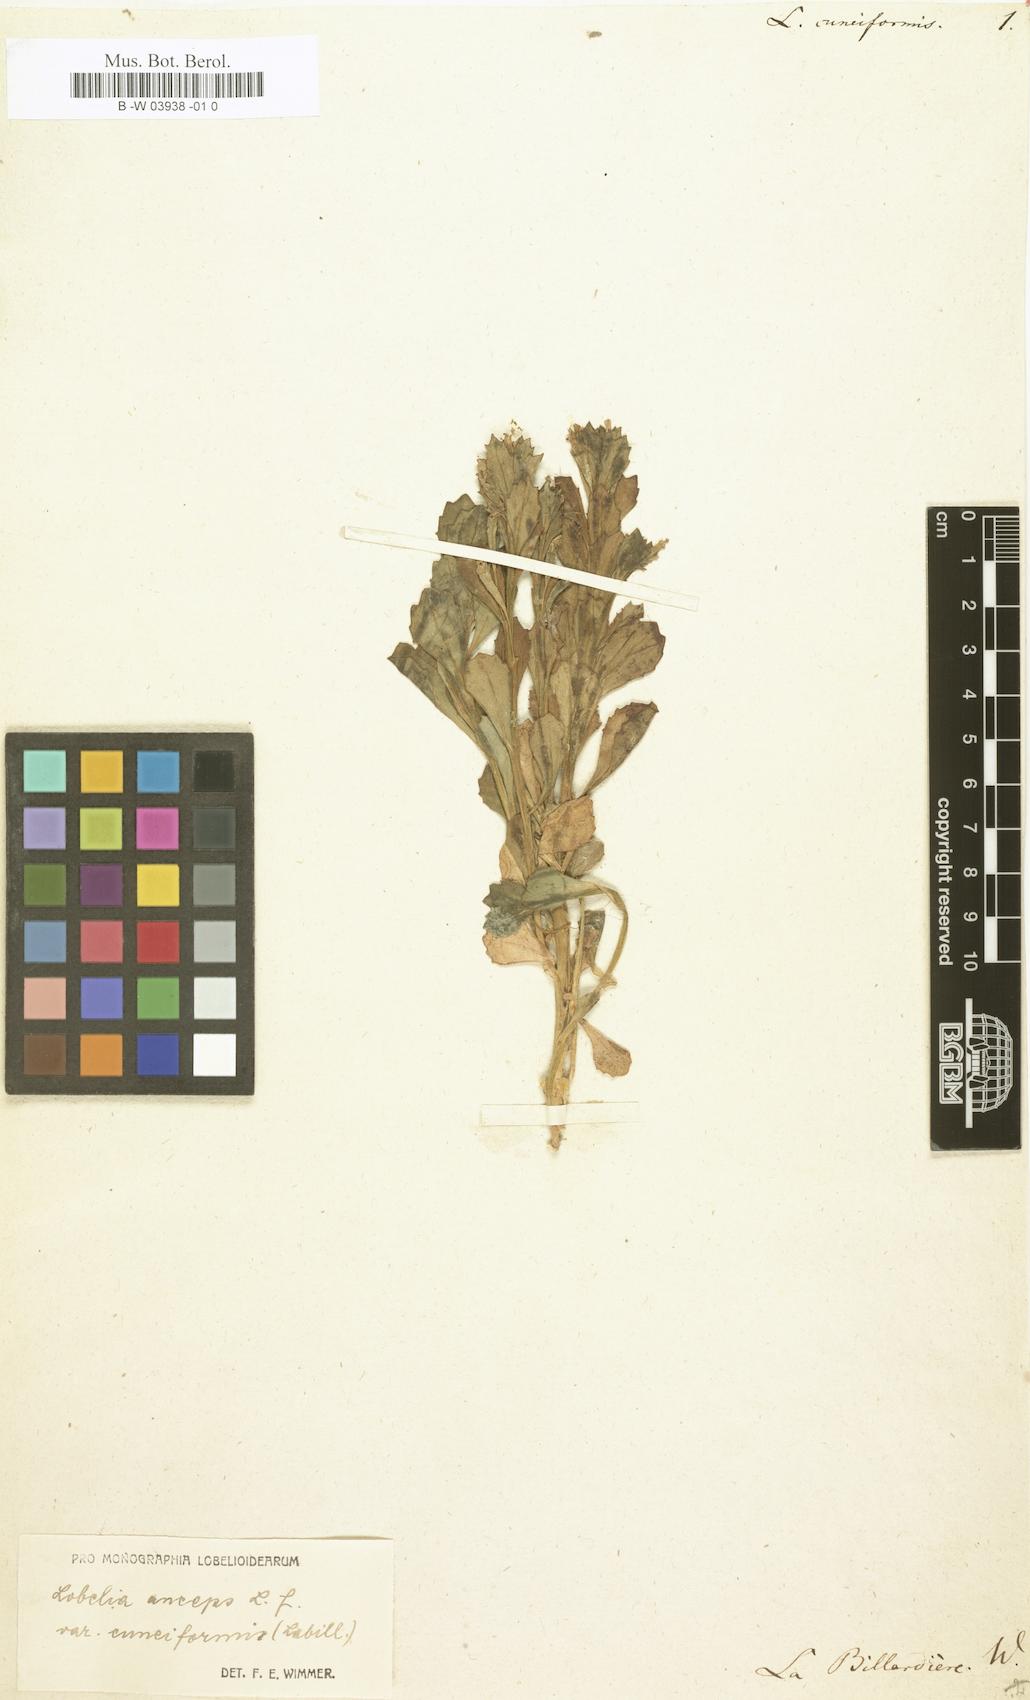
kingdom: Plantae
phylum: Tracheophyta
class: Magnoliopsida
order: Asterales
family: Campanulaceae
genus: Lobelia
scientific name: Lobelia anceps
